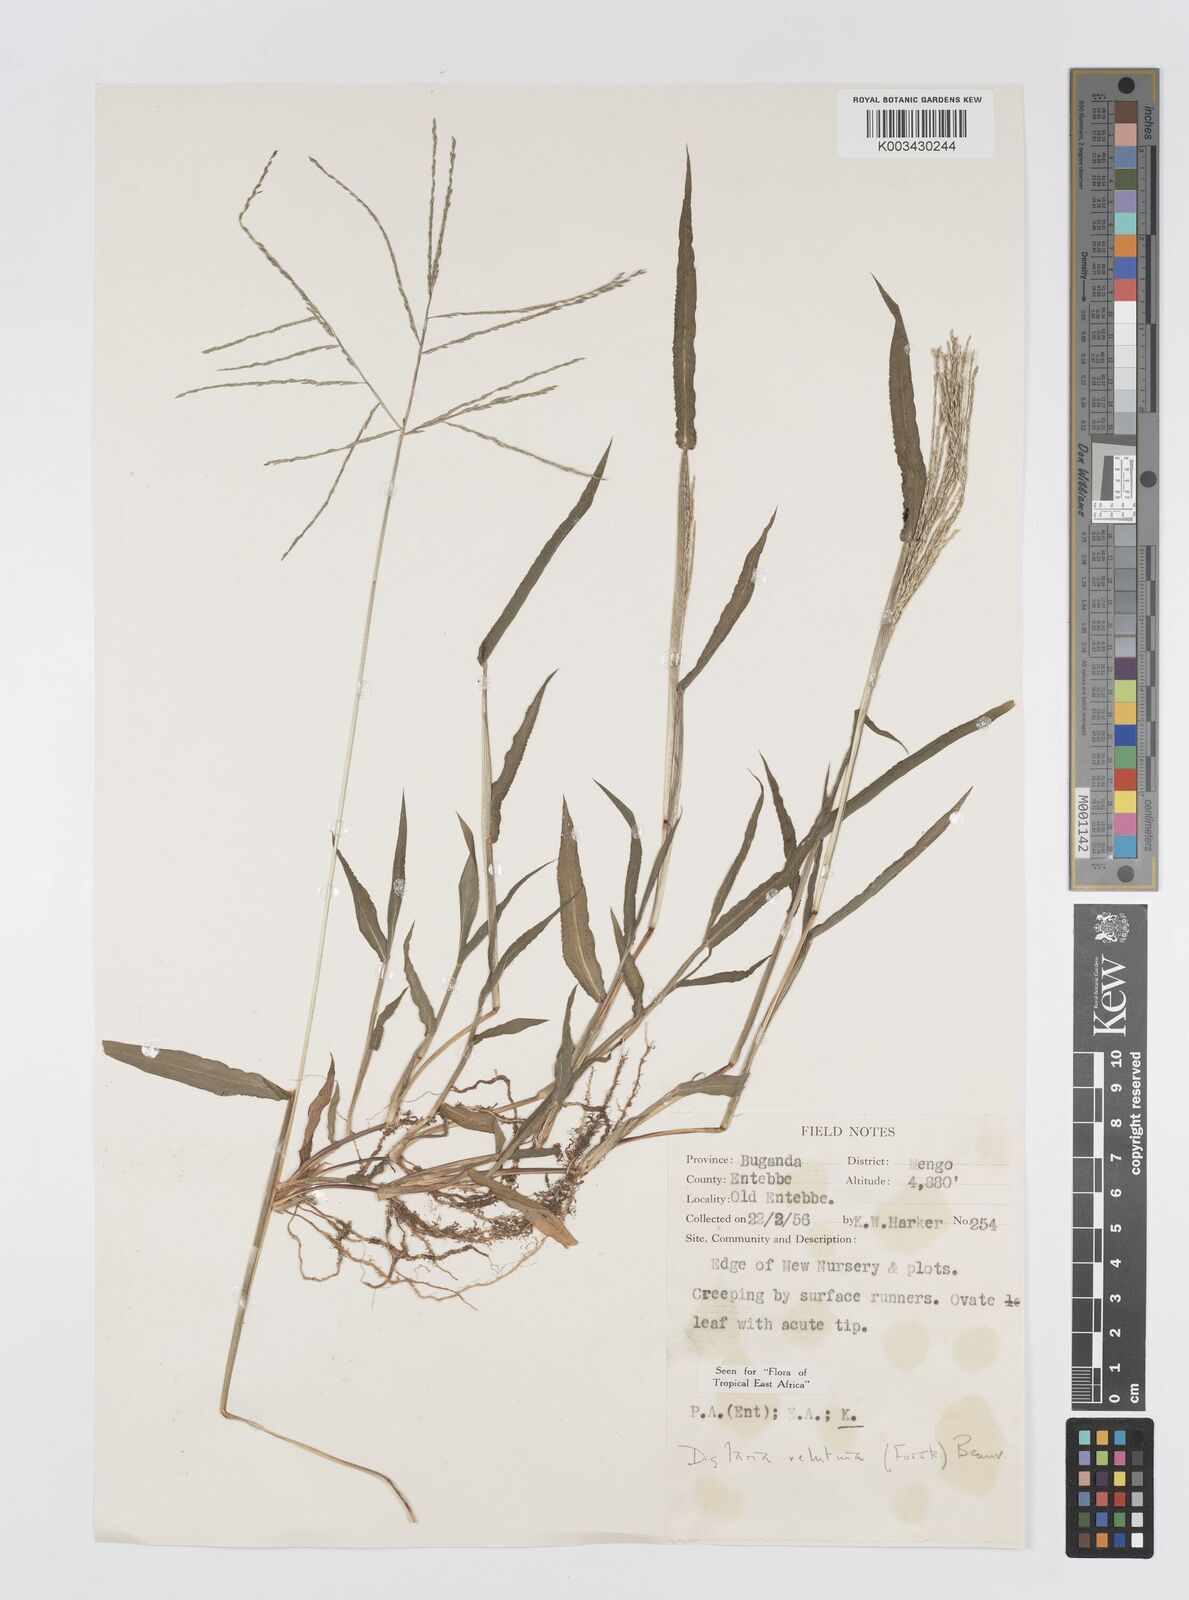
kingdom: Plantae
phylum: Tracheophyta
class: Liliopsida
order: Poales
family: Poaceae
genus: Digitaria
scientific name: Digitaria velutina
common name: Long-plume finger grass
